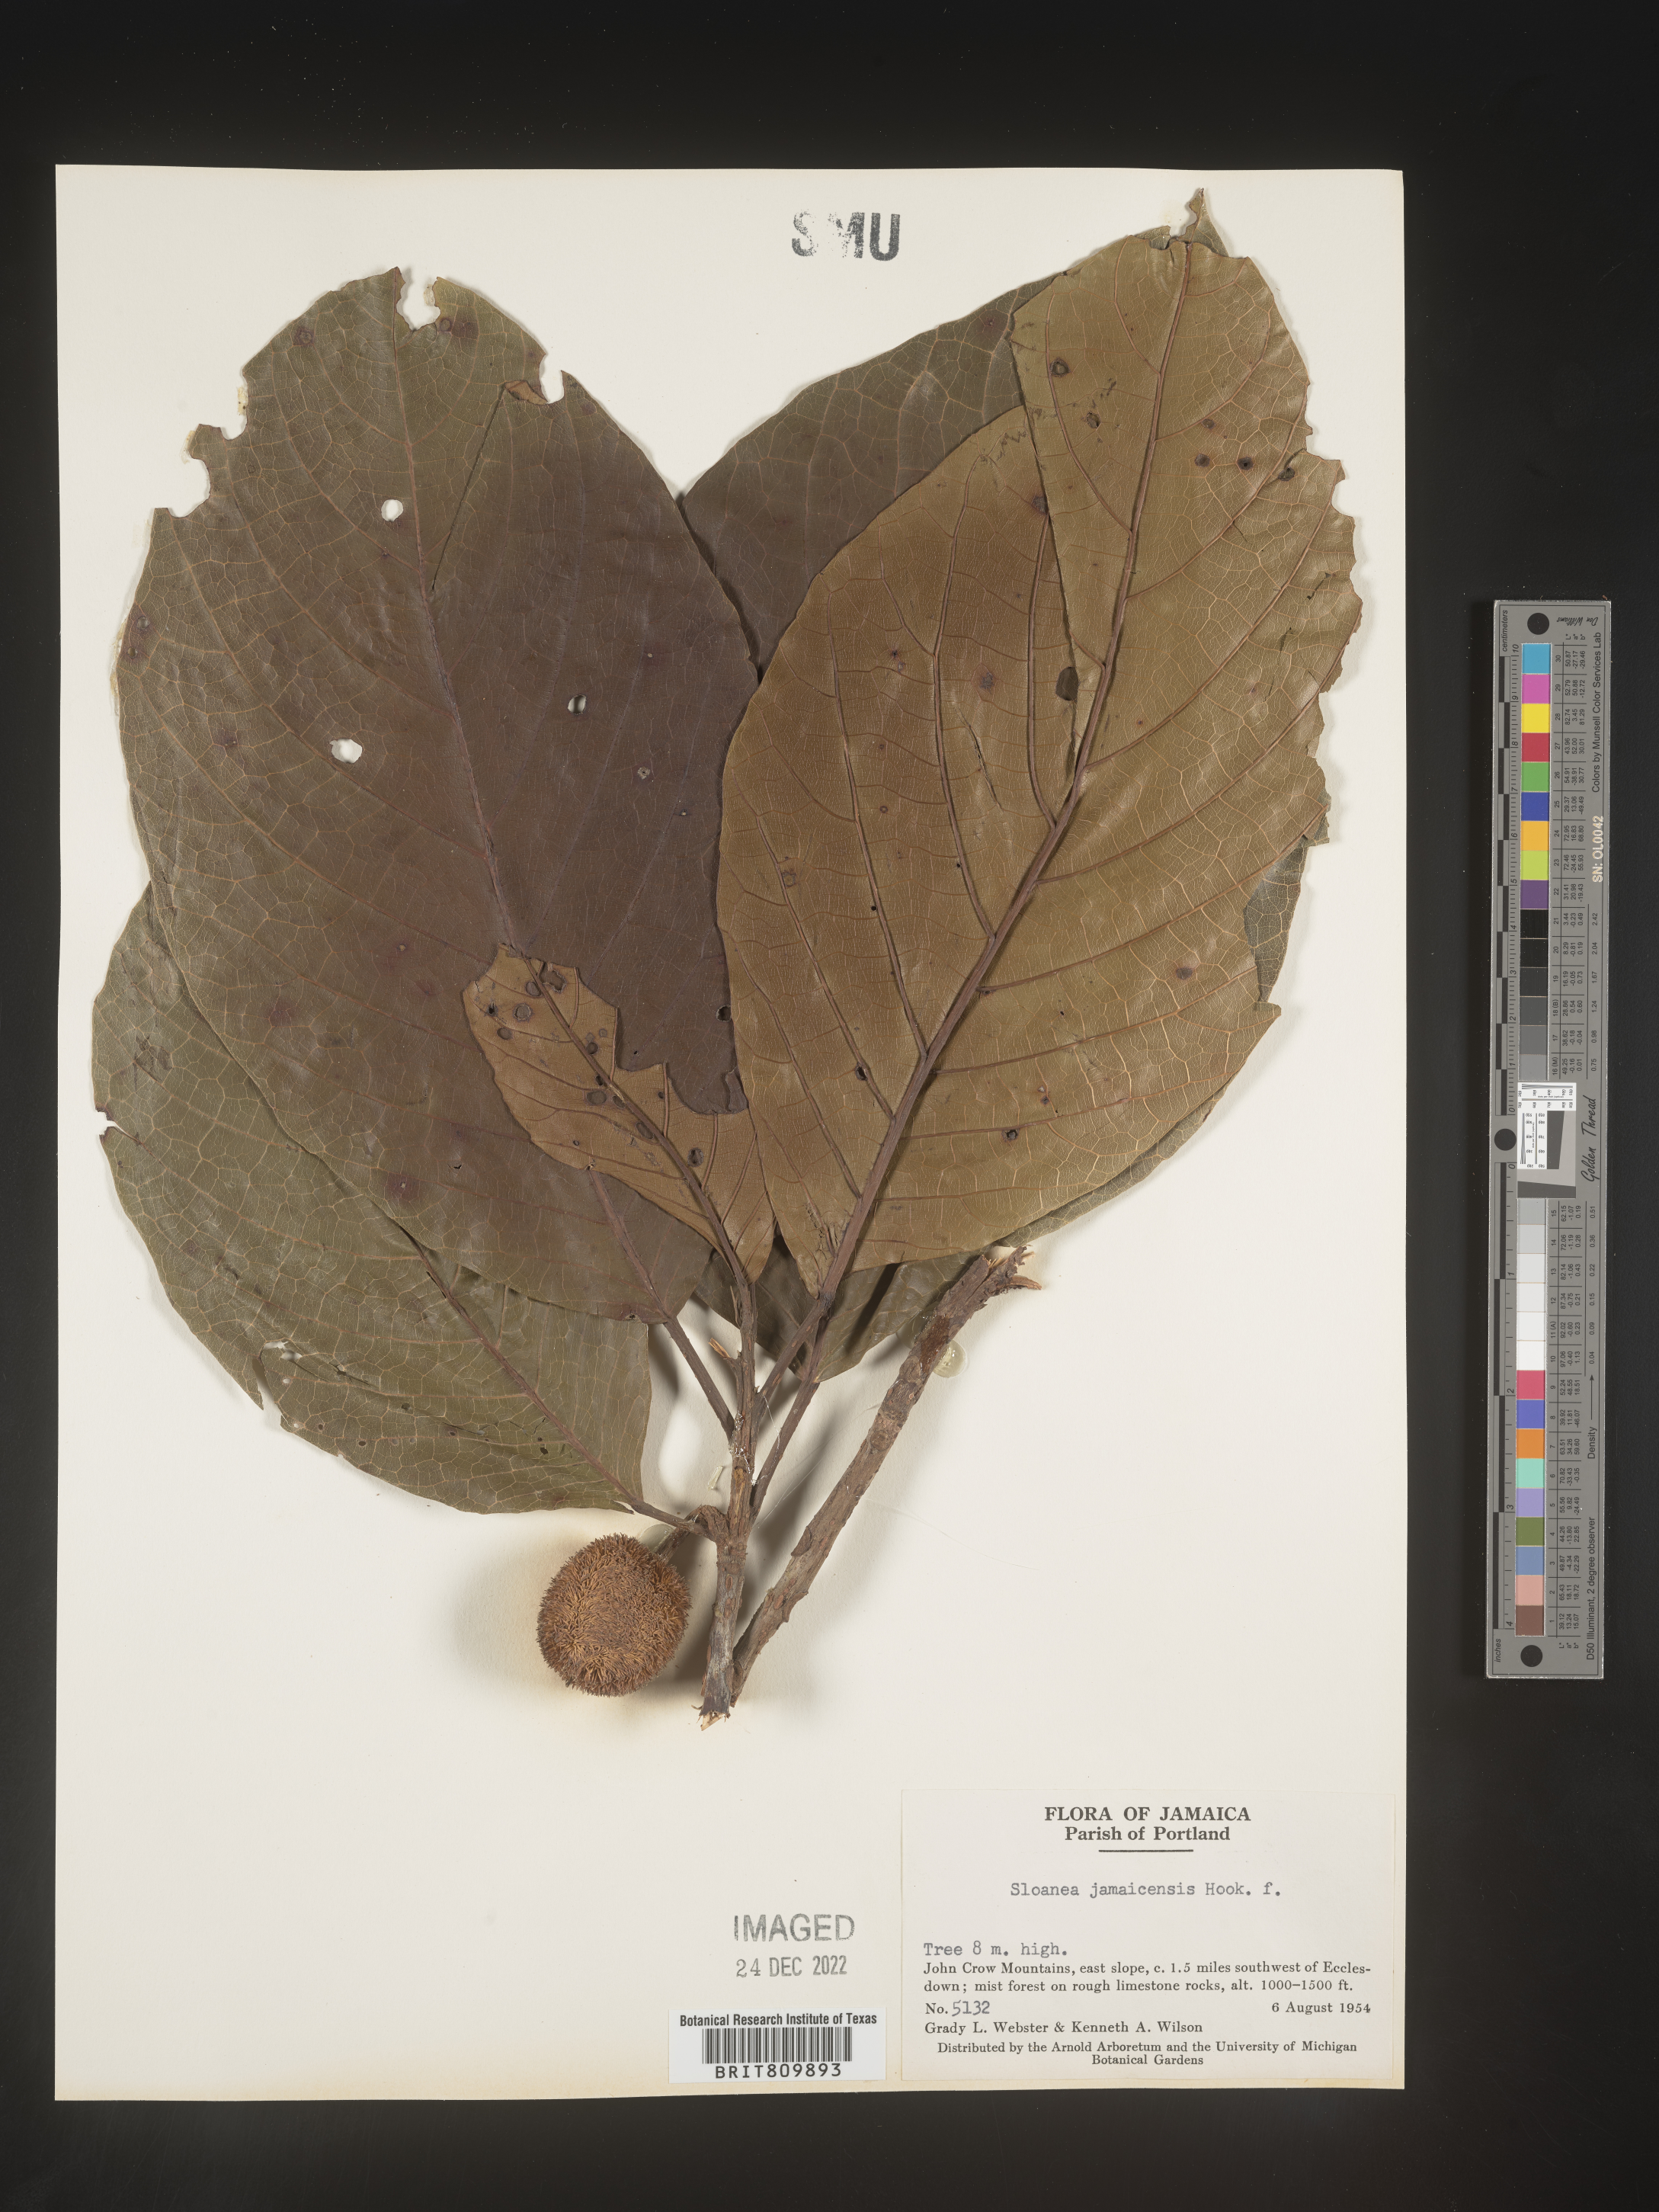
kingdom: Plantae
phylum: Tracheophyta
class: Magnoliopsida
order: Oxalidales
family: Elaeocarpaceae
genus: Sloanea
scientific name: Sloanea
